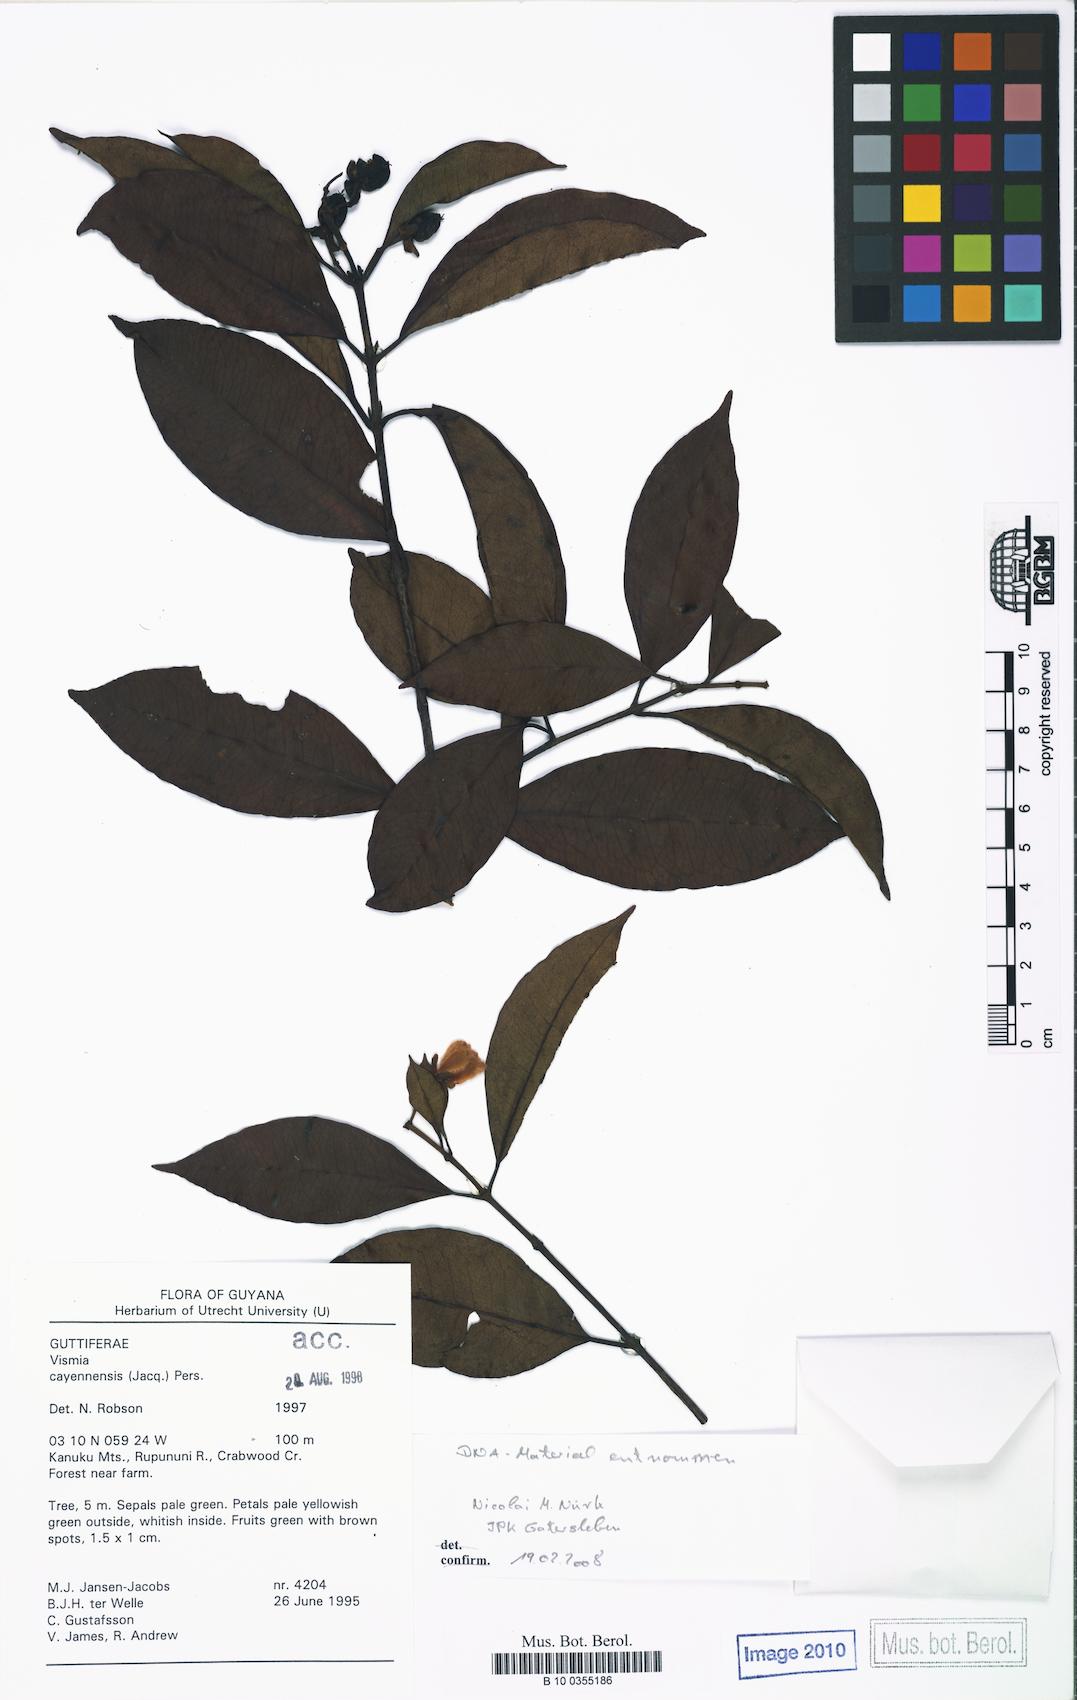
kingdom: Plantae
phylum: Tracheophyta
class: Magnoliopsida
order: Malpighiales
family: Hypericaceae
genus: Vismia
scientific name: Vismia cayennensis
